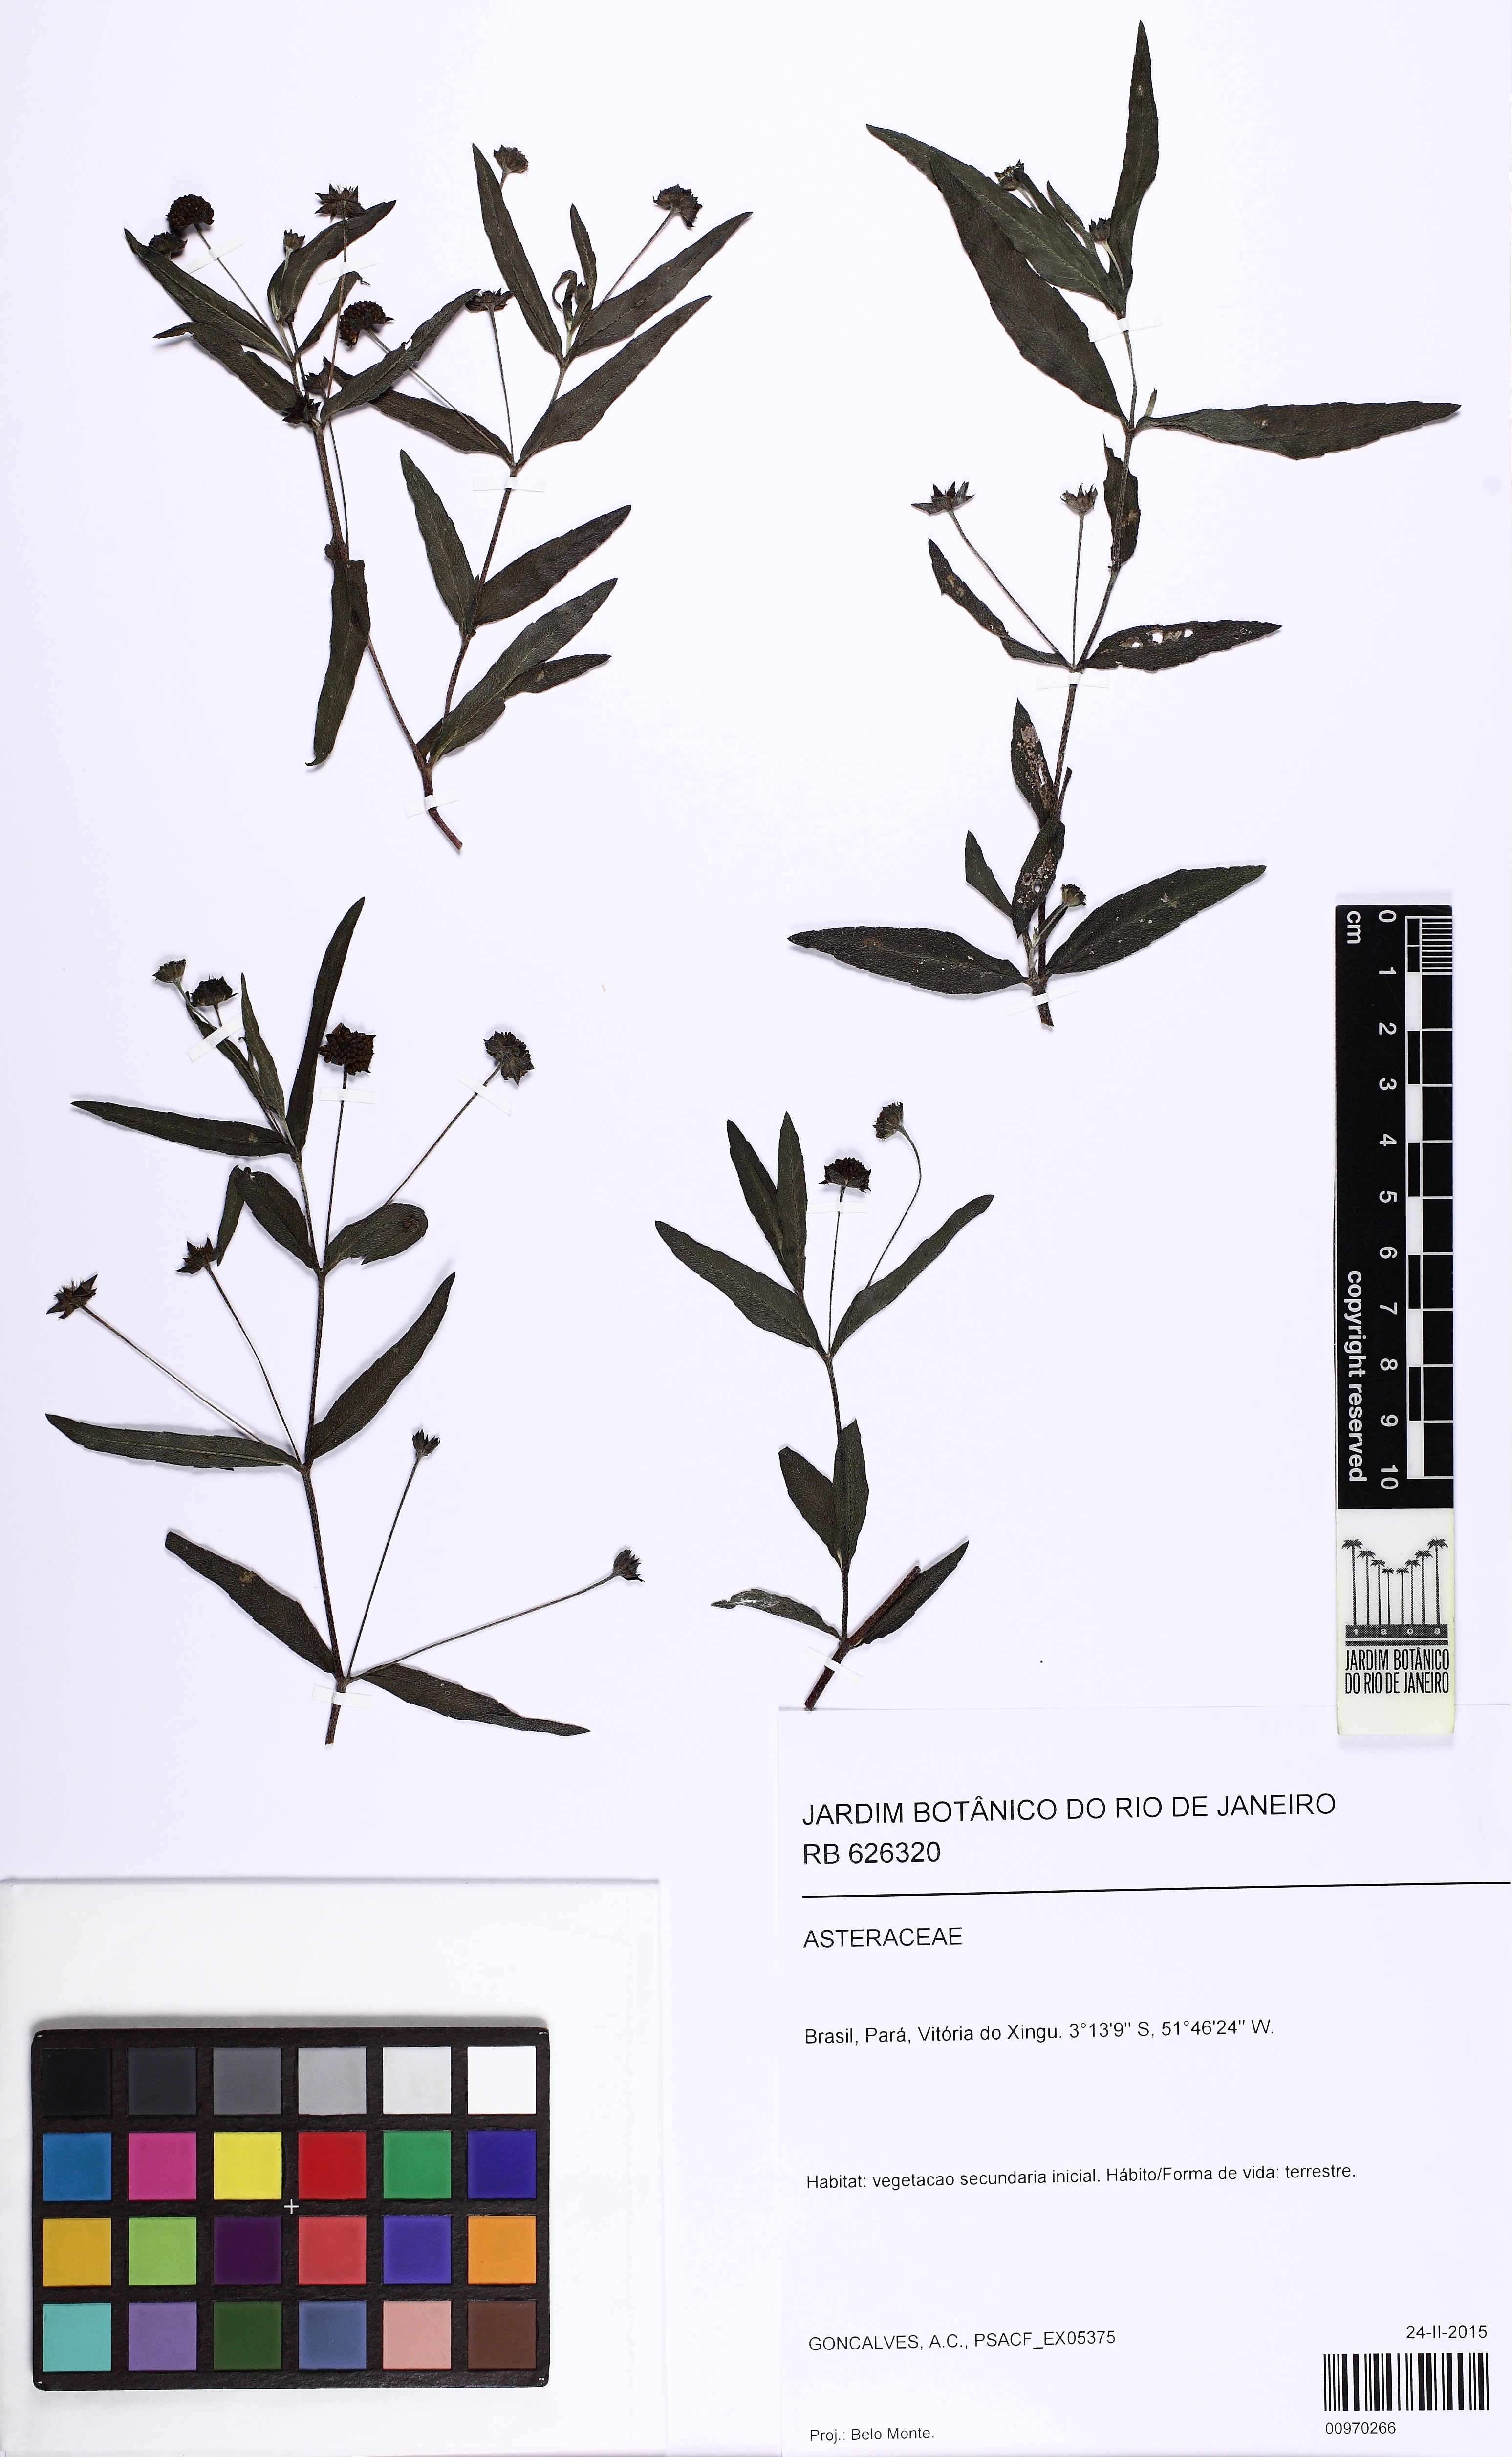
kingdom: Plantae
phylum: Tracheophyta
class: Magnoliopsida
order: Asterales
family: Asteraceae
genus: Eclipta
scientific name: Eclipta prostrata
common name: False daisy
